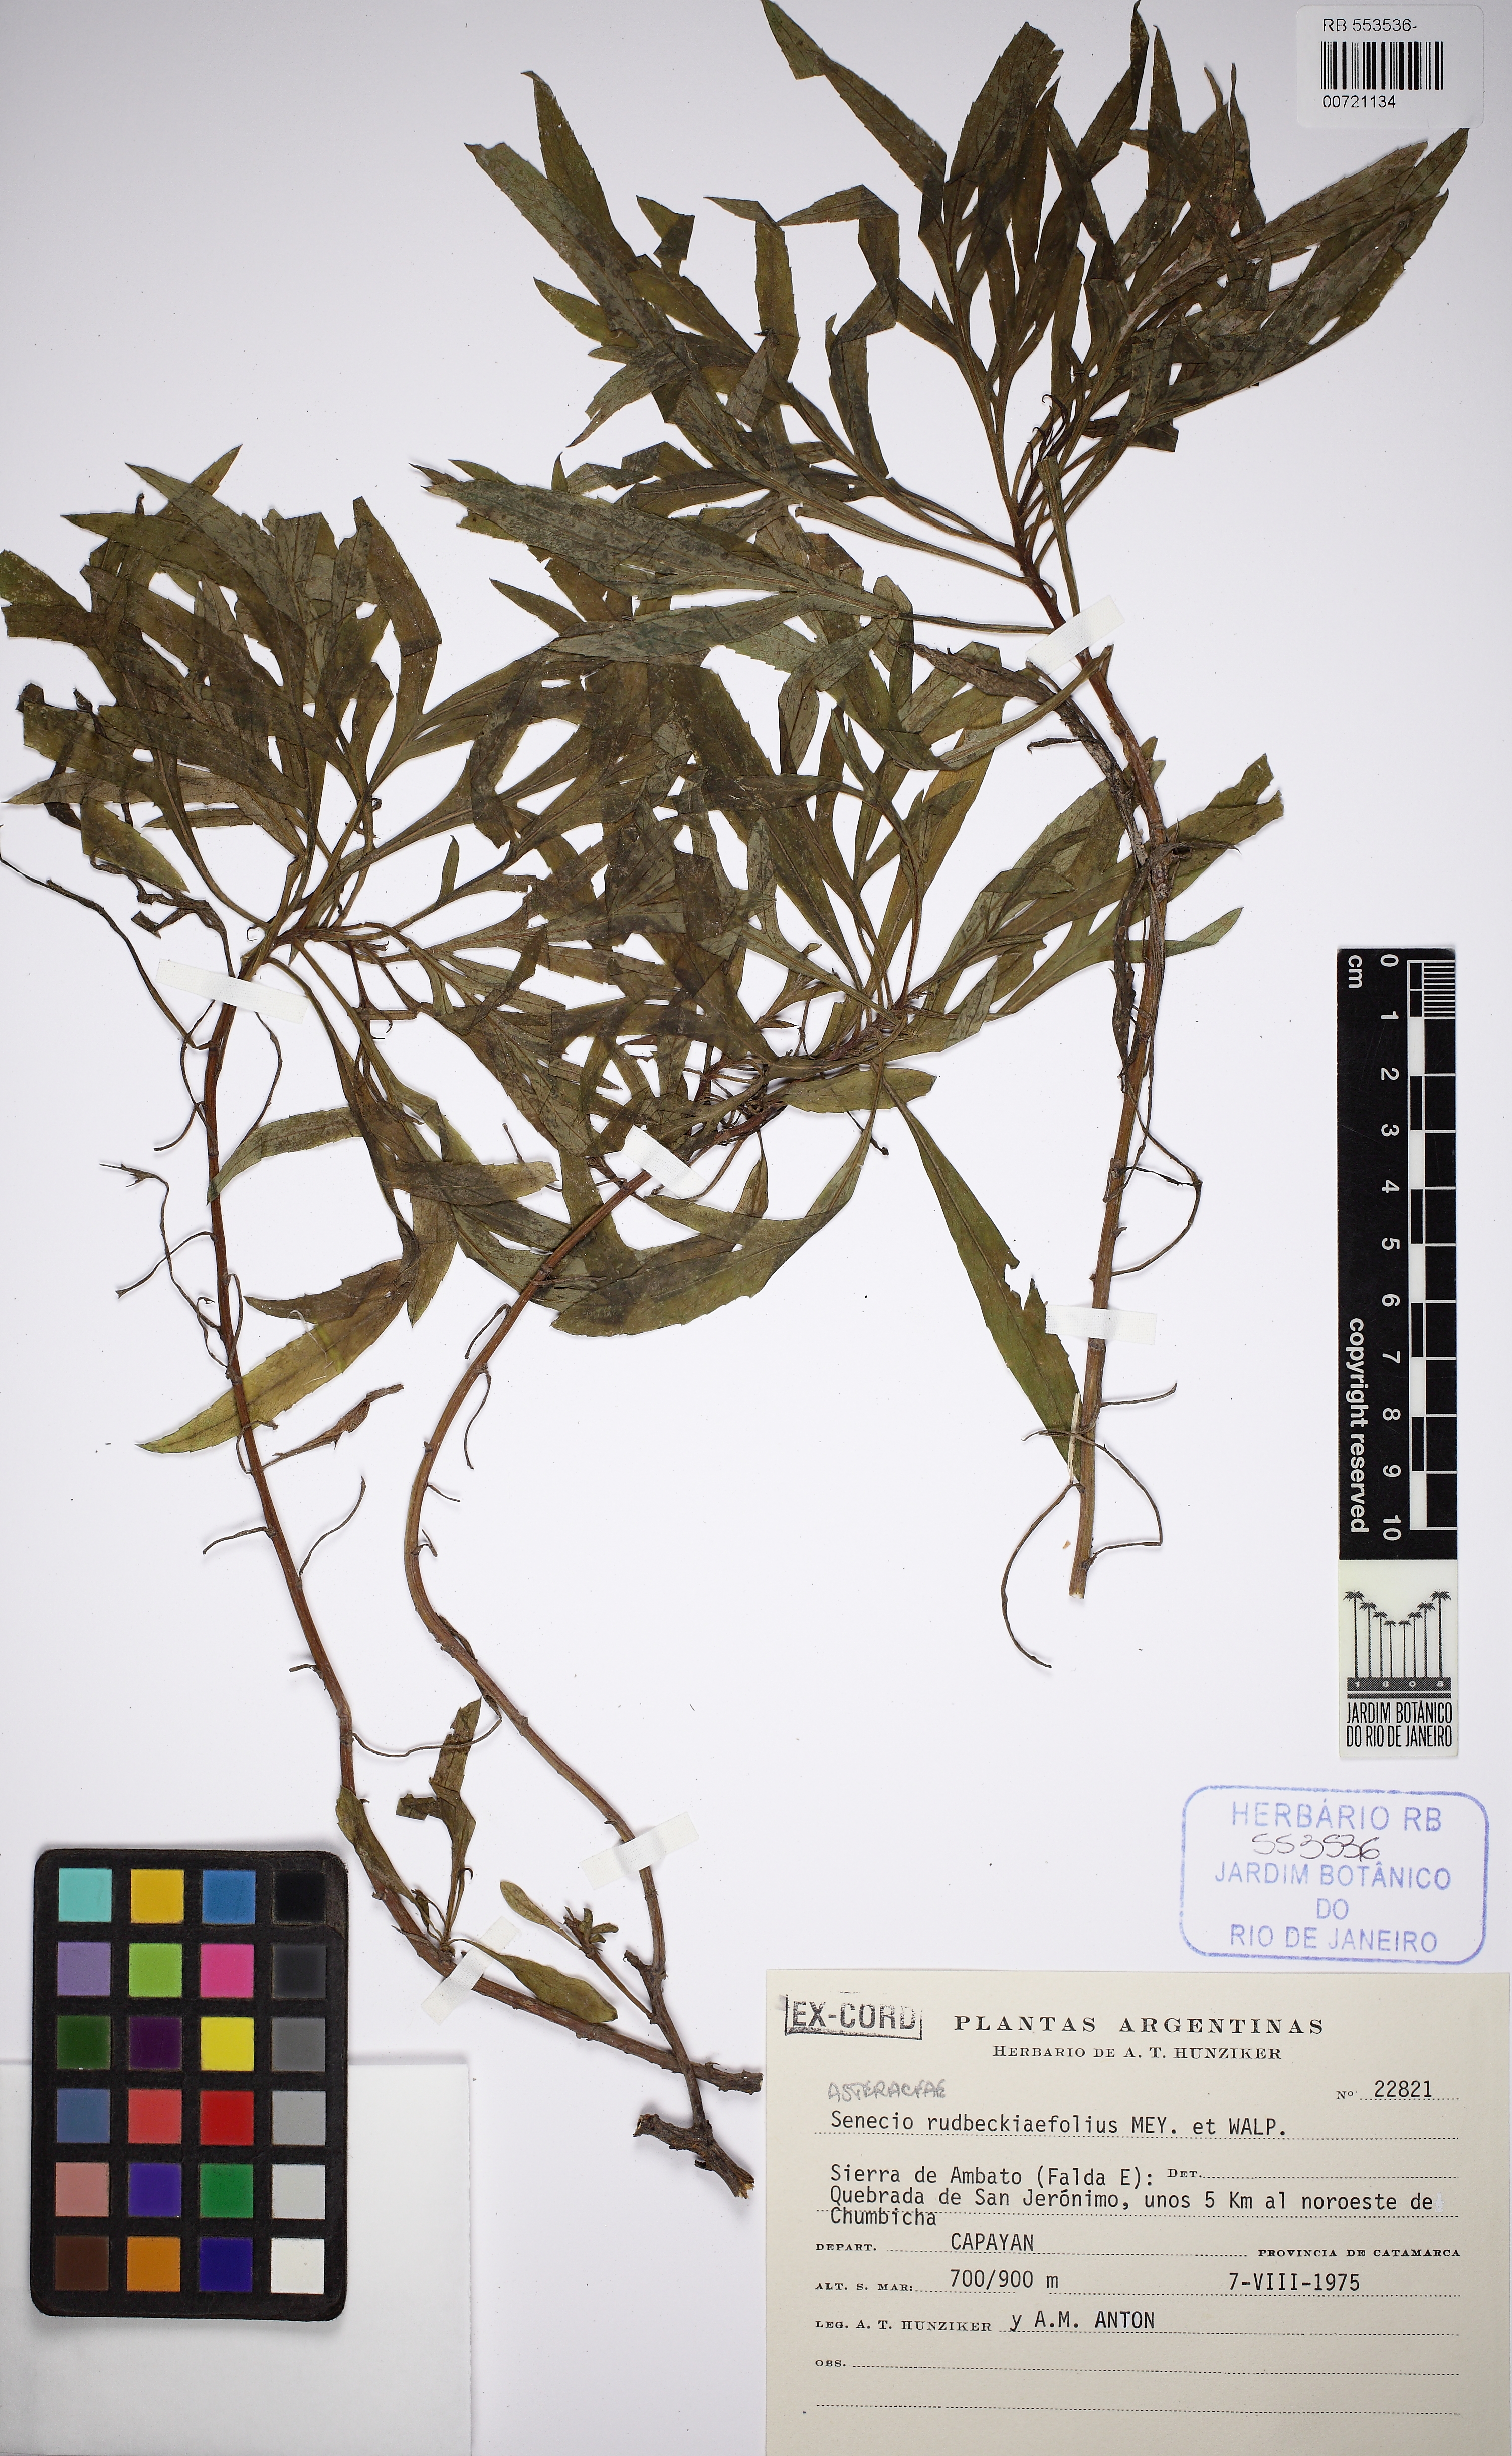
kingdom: Plantae
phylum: Tracheophyta
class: Magnoliopsida
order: Asterales
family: Asteraceae
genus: Senecio
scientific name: Senecio rudbeckiaefolius
